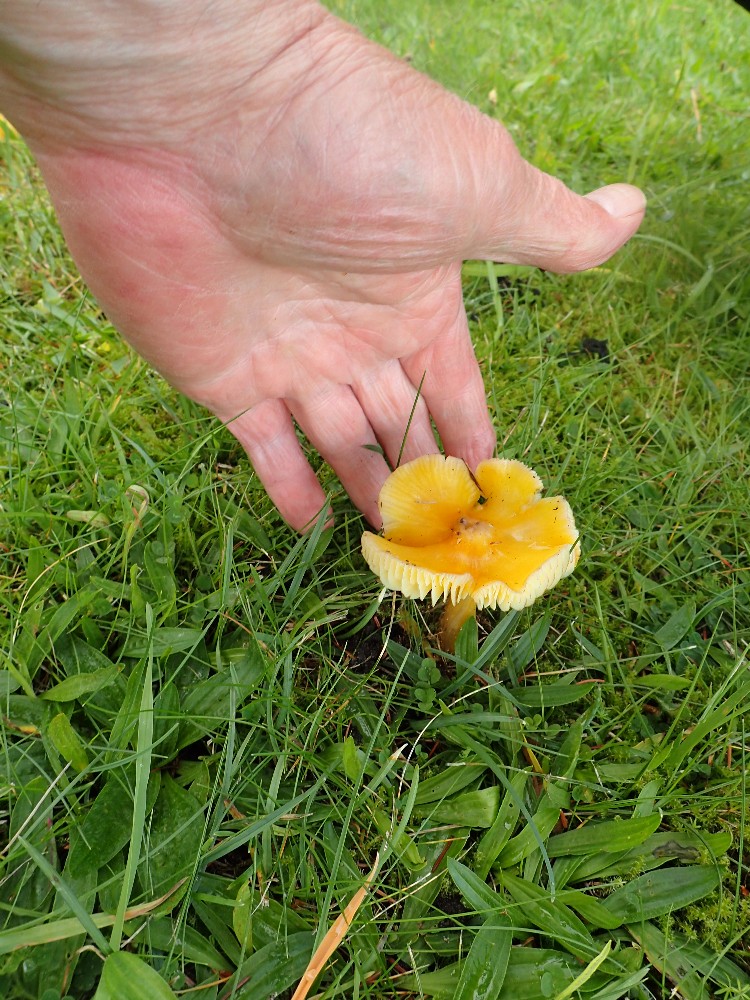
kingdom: Fungi
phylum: Basidiomycota
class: Agaricomycetes
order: Agaricales
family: Hygrophoraceae
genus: Hygrocybe
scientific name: Hygrocybe chlorophana
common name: gul vokshat
